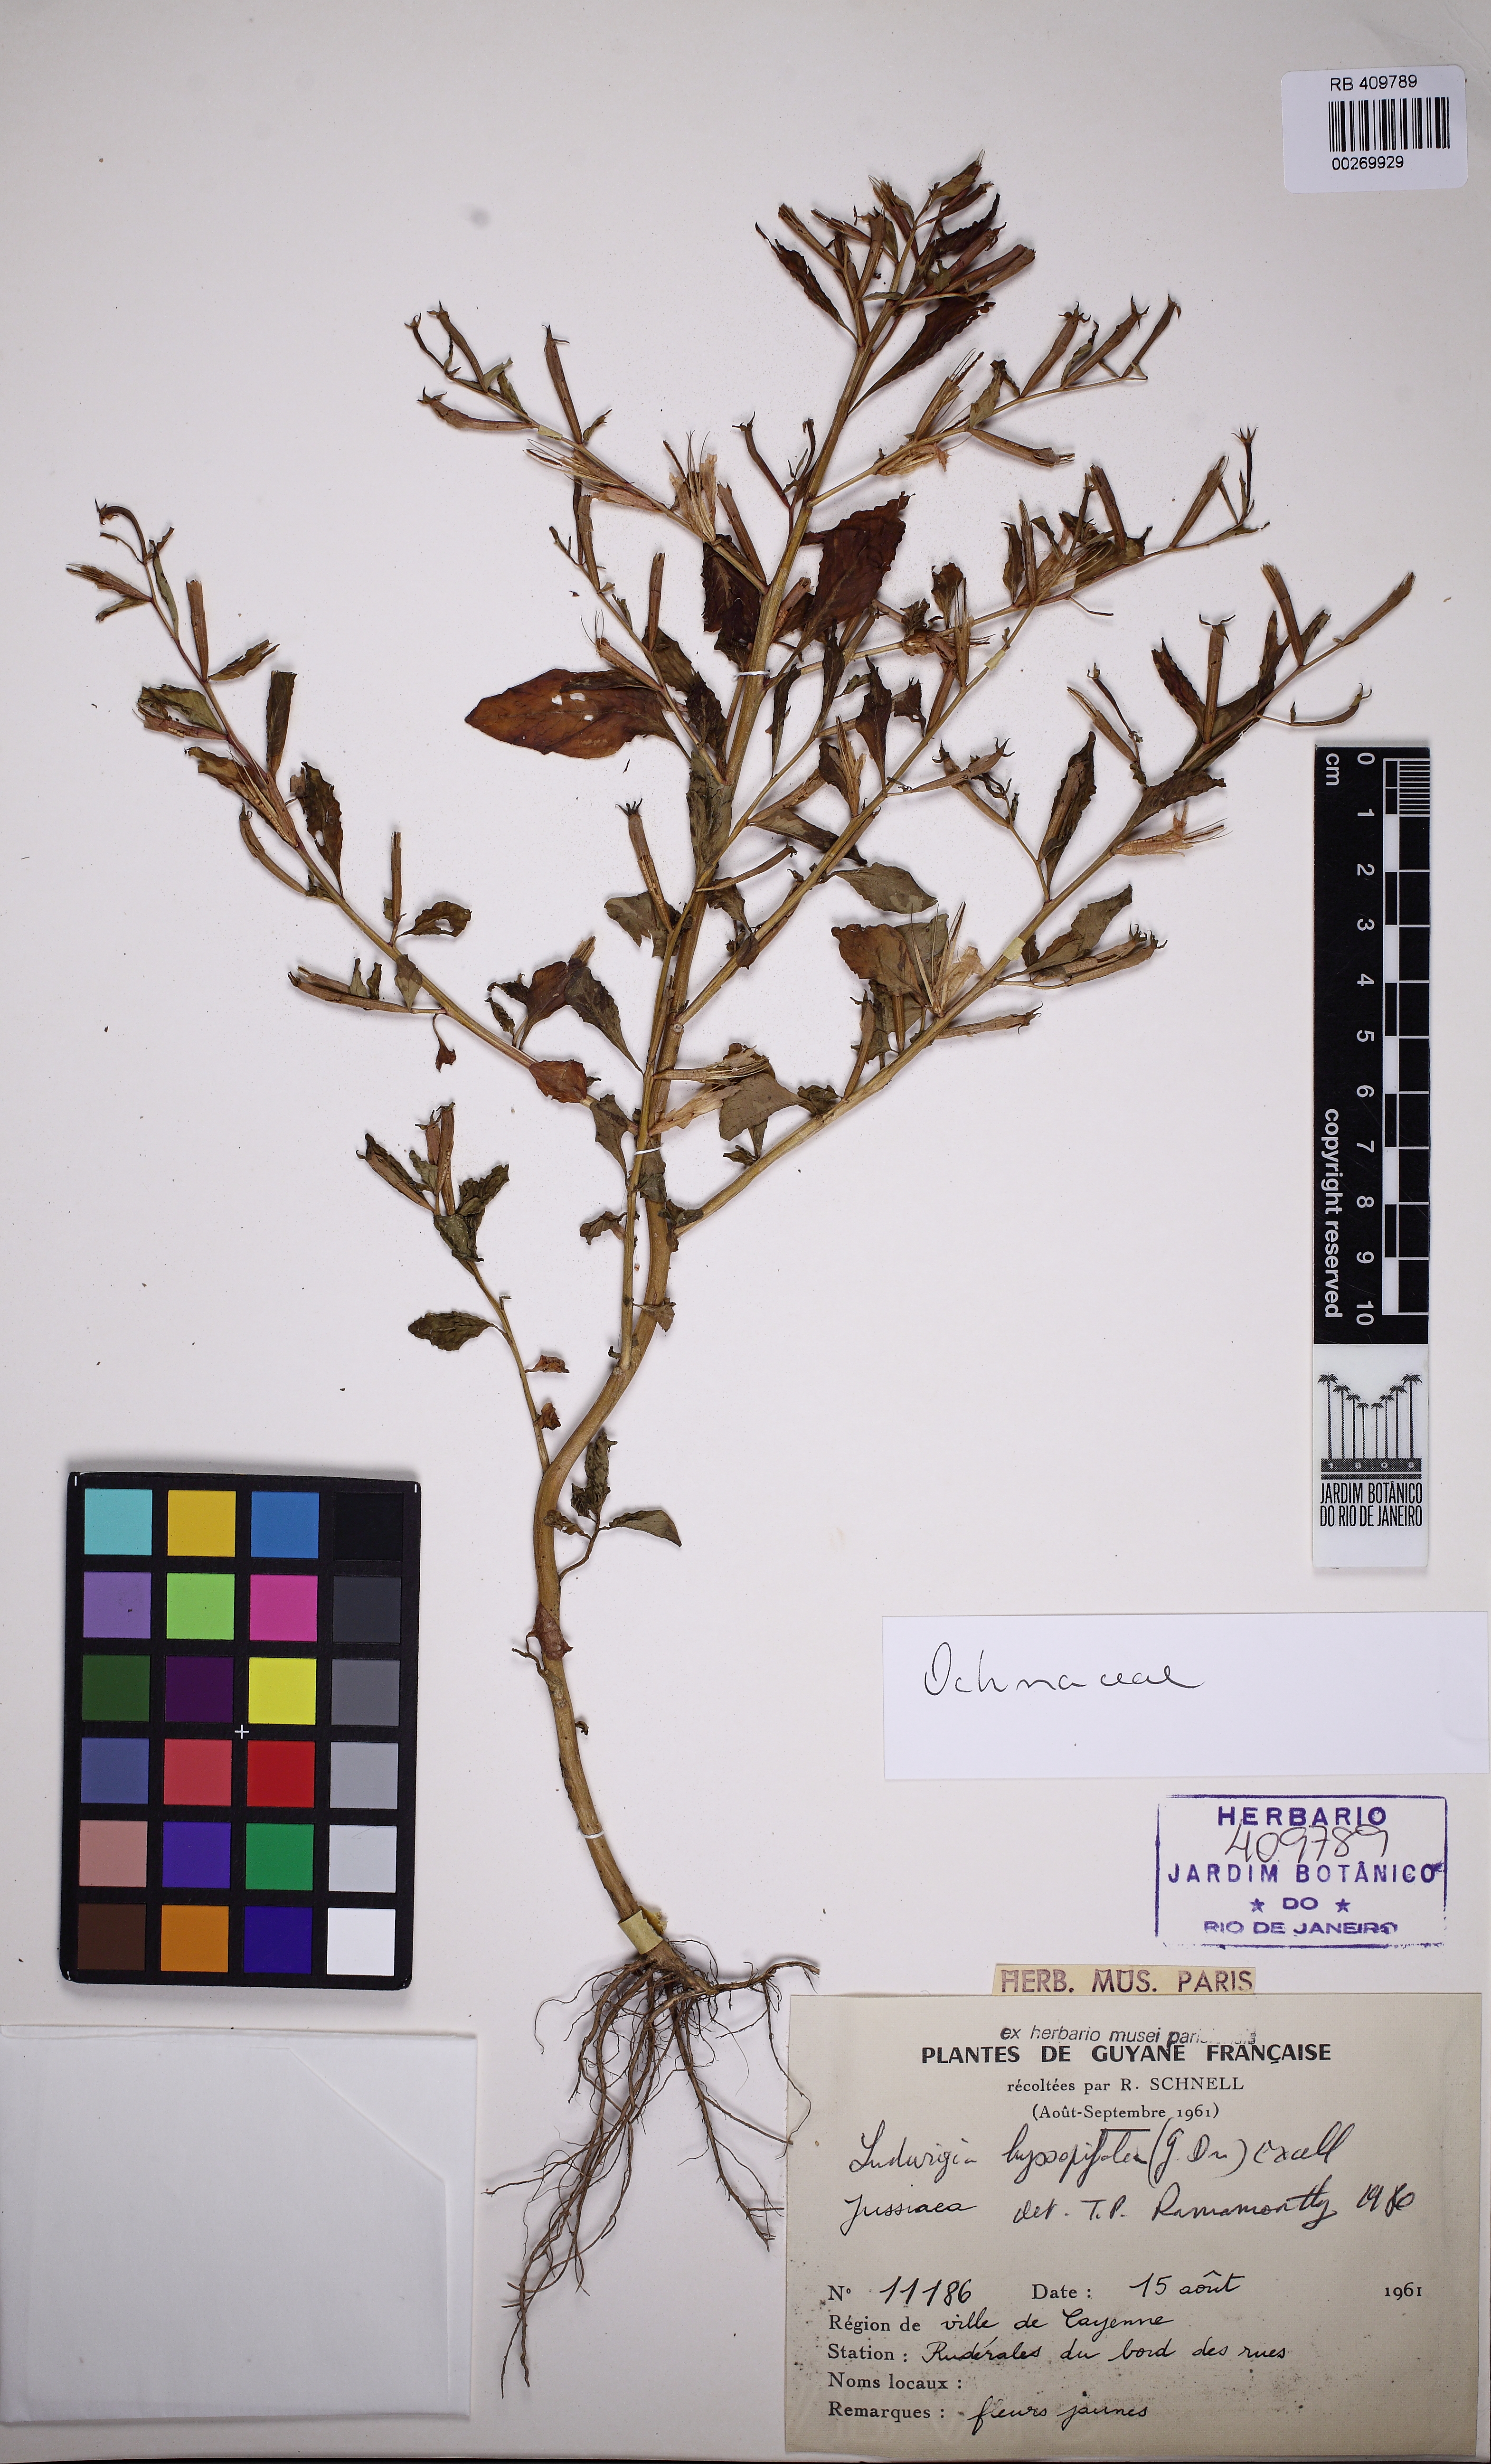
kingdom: Plantae
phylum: Tracheophyta
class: Magnoliopsida
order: Myrtales
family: Onagraceae
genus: Ludwigia
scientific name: Ludwigia hyssopifolia
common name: Linear leaf water primrose
